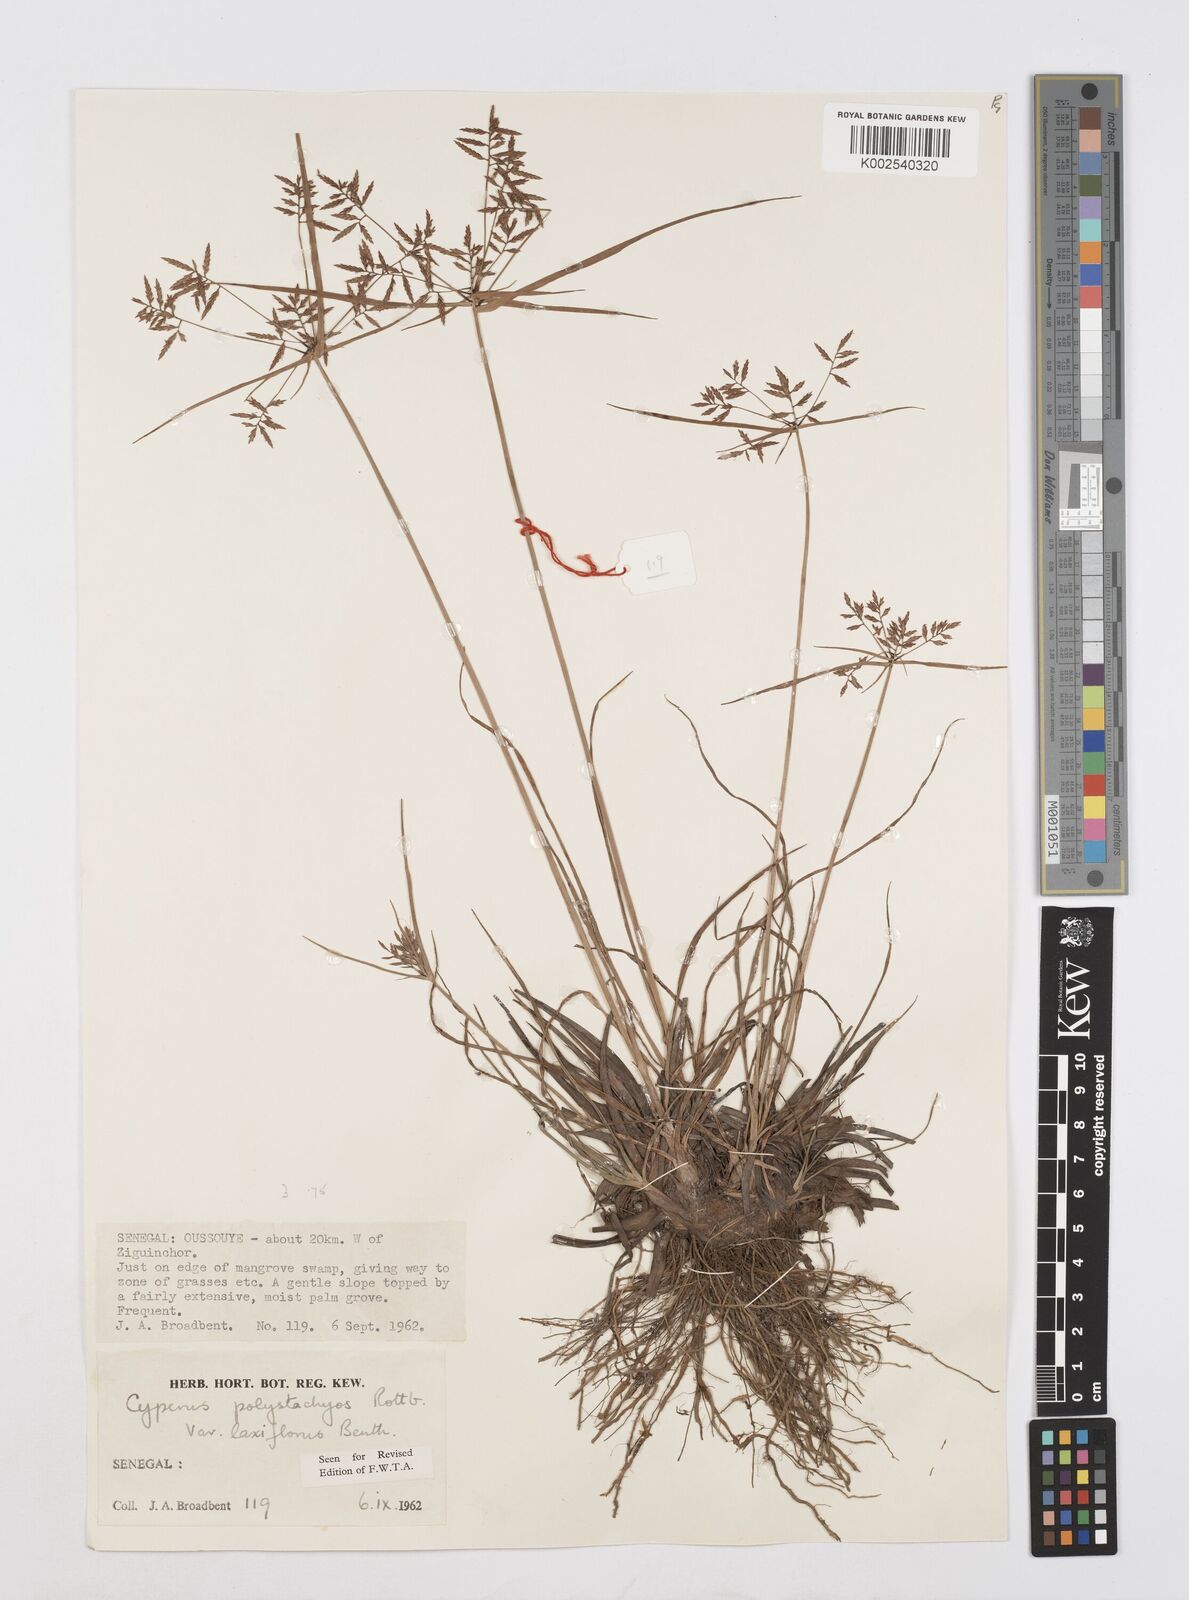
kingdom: Plantae
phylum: Tracheophyta
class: Liliopsida
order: Poales
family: Cyperaceae
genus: Cyperus
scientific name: Cyperus polystachyos
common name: Bunchy flat sedge
